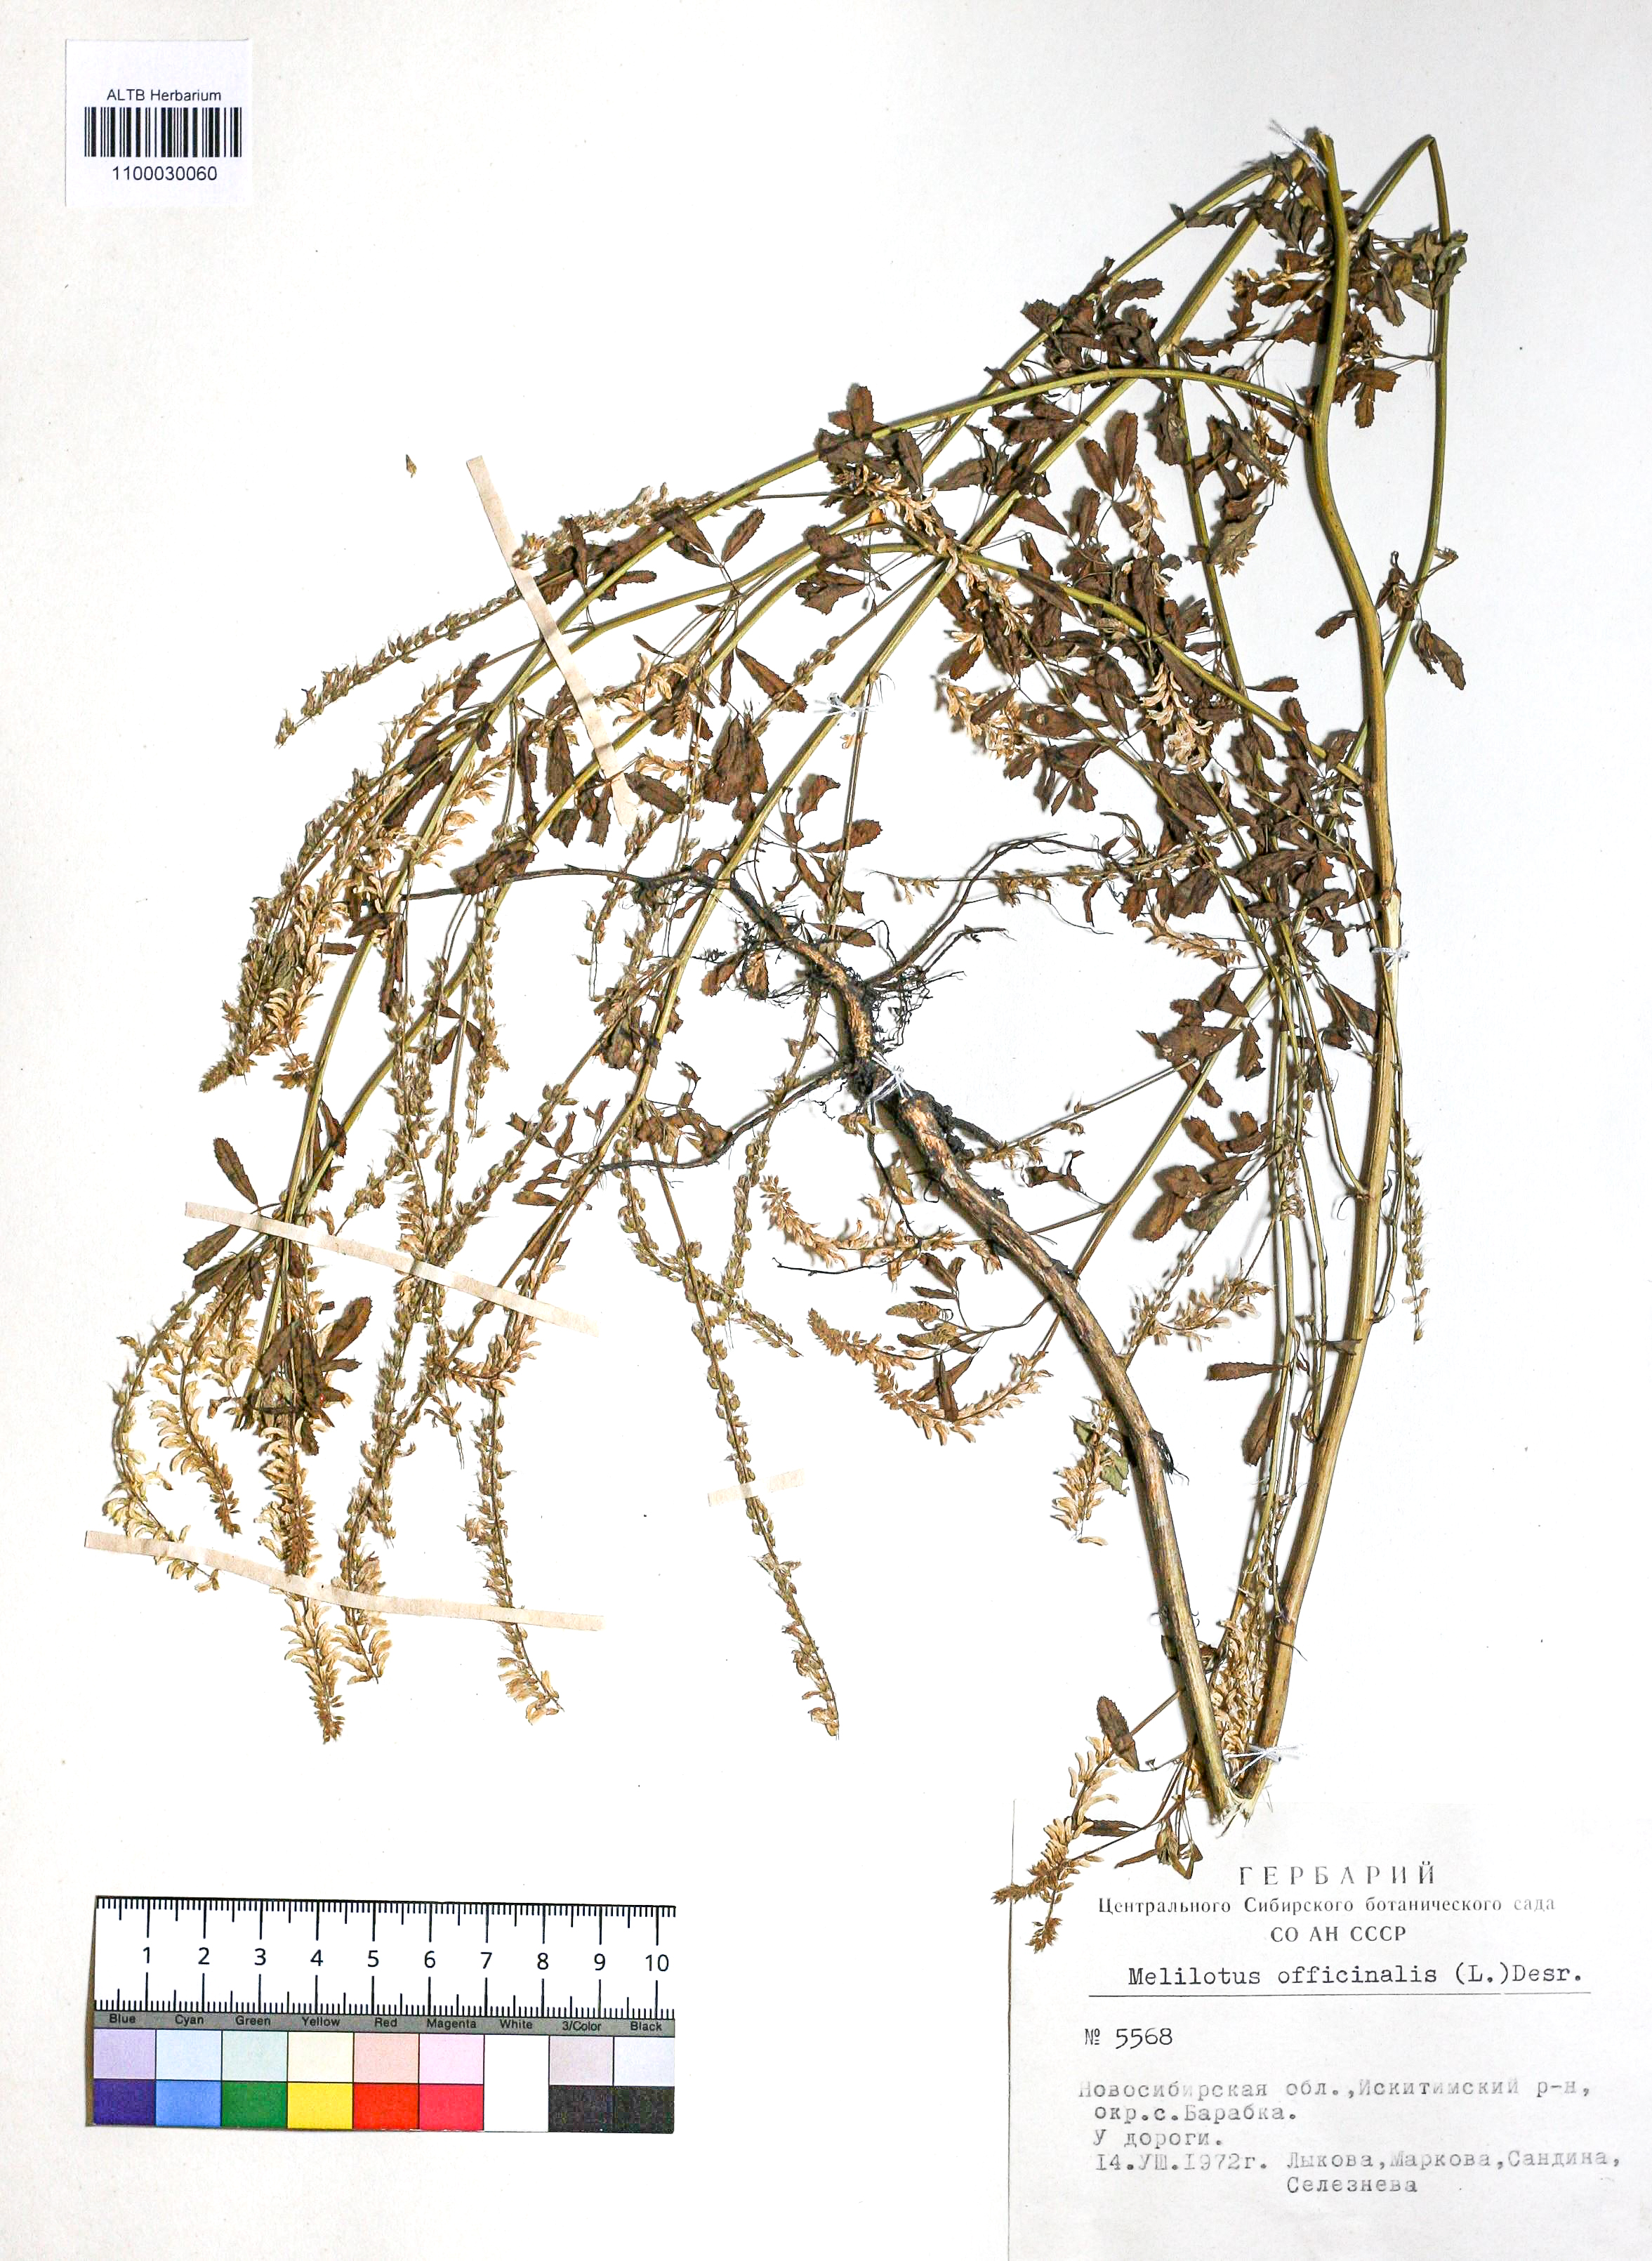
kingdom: Plantae
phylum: Tracheophyta
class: Magnoliopsida
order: Fabales
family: Fabaceae
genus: Melilotus
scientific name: Melilotus officinalis
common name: Sweetclover
